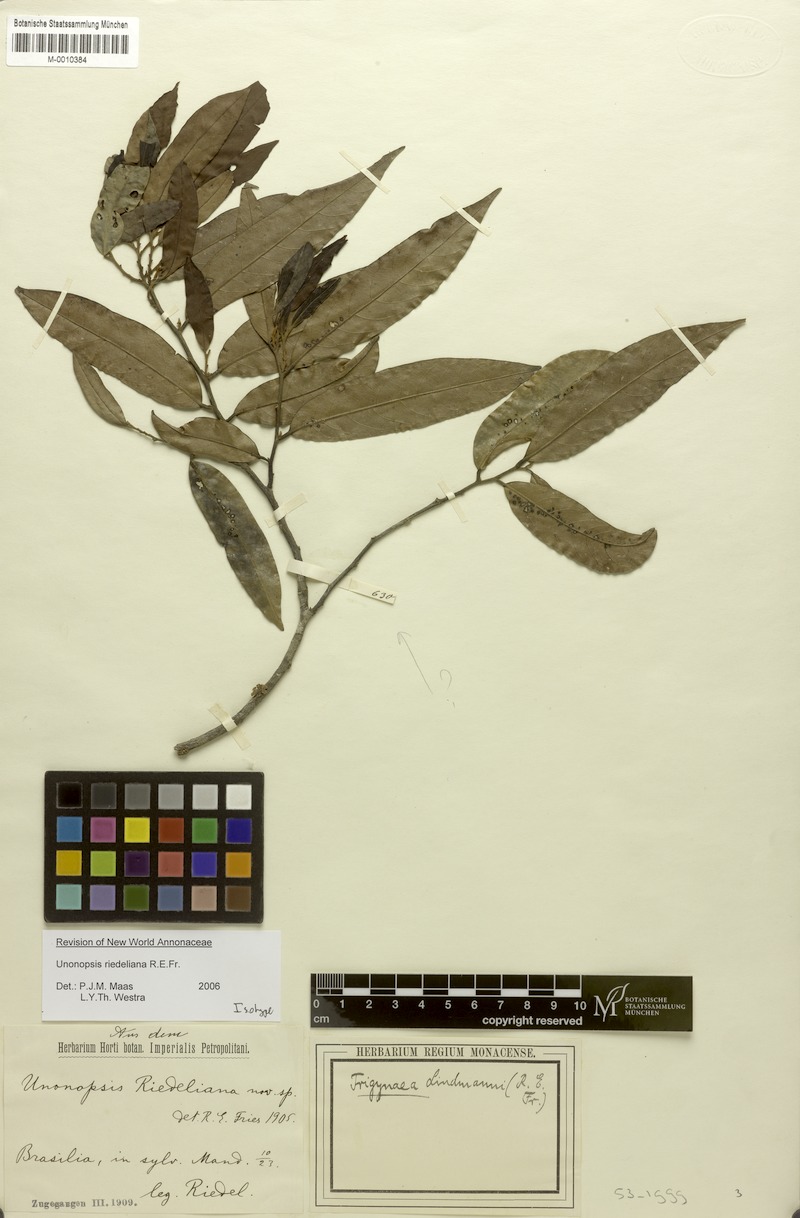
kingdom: Plantae
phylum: Tracheophyta
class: Magnoliopsida
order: Magnoliales
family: Annonaceae
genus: Unonopsis
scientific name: Unonopsis riedeliana
